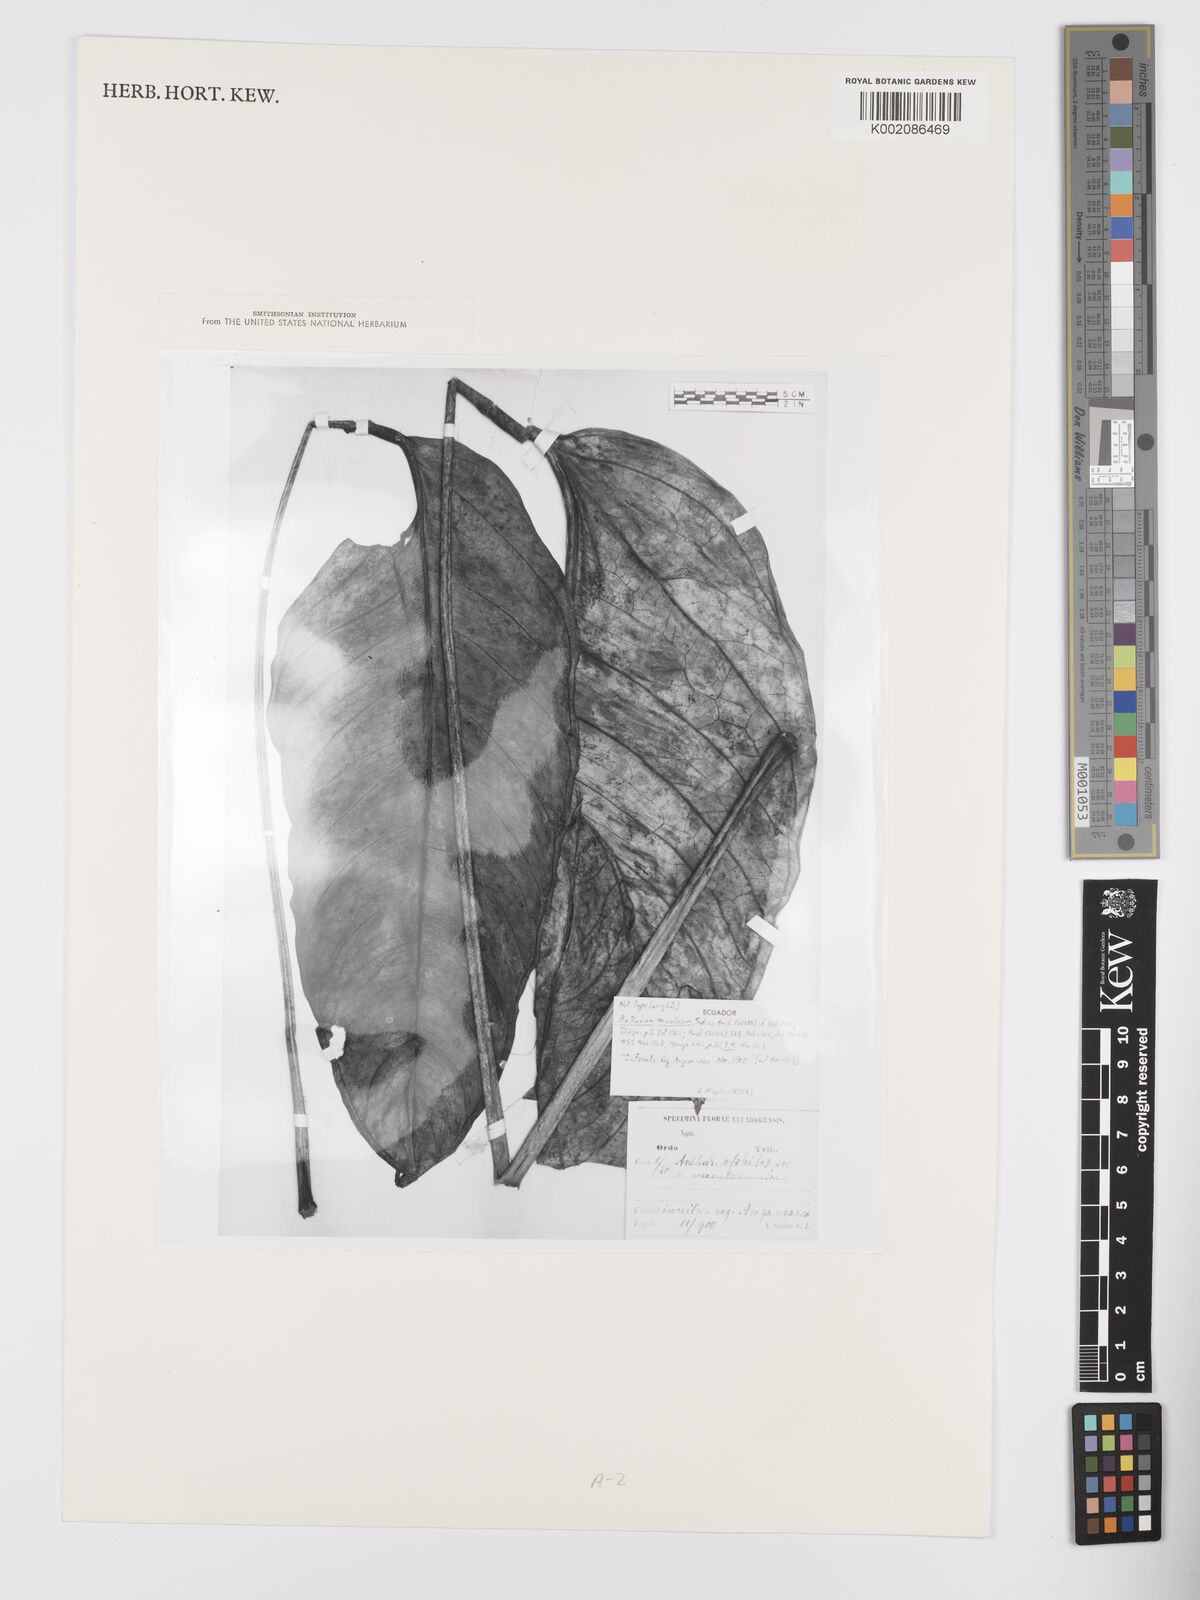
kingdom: Plantae
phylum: Tracheophyta
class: Liliopsida
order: Alismatales
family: Araceae
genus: Anthurium
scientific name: Anthurium maculosum
